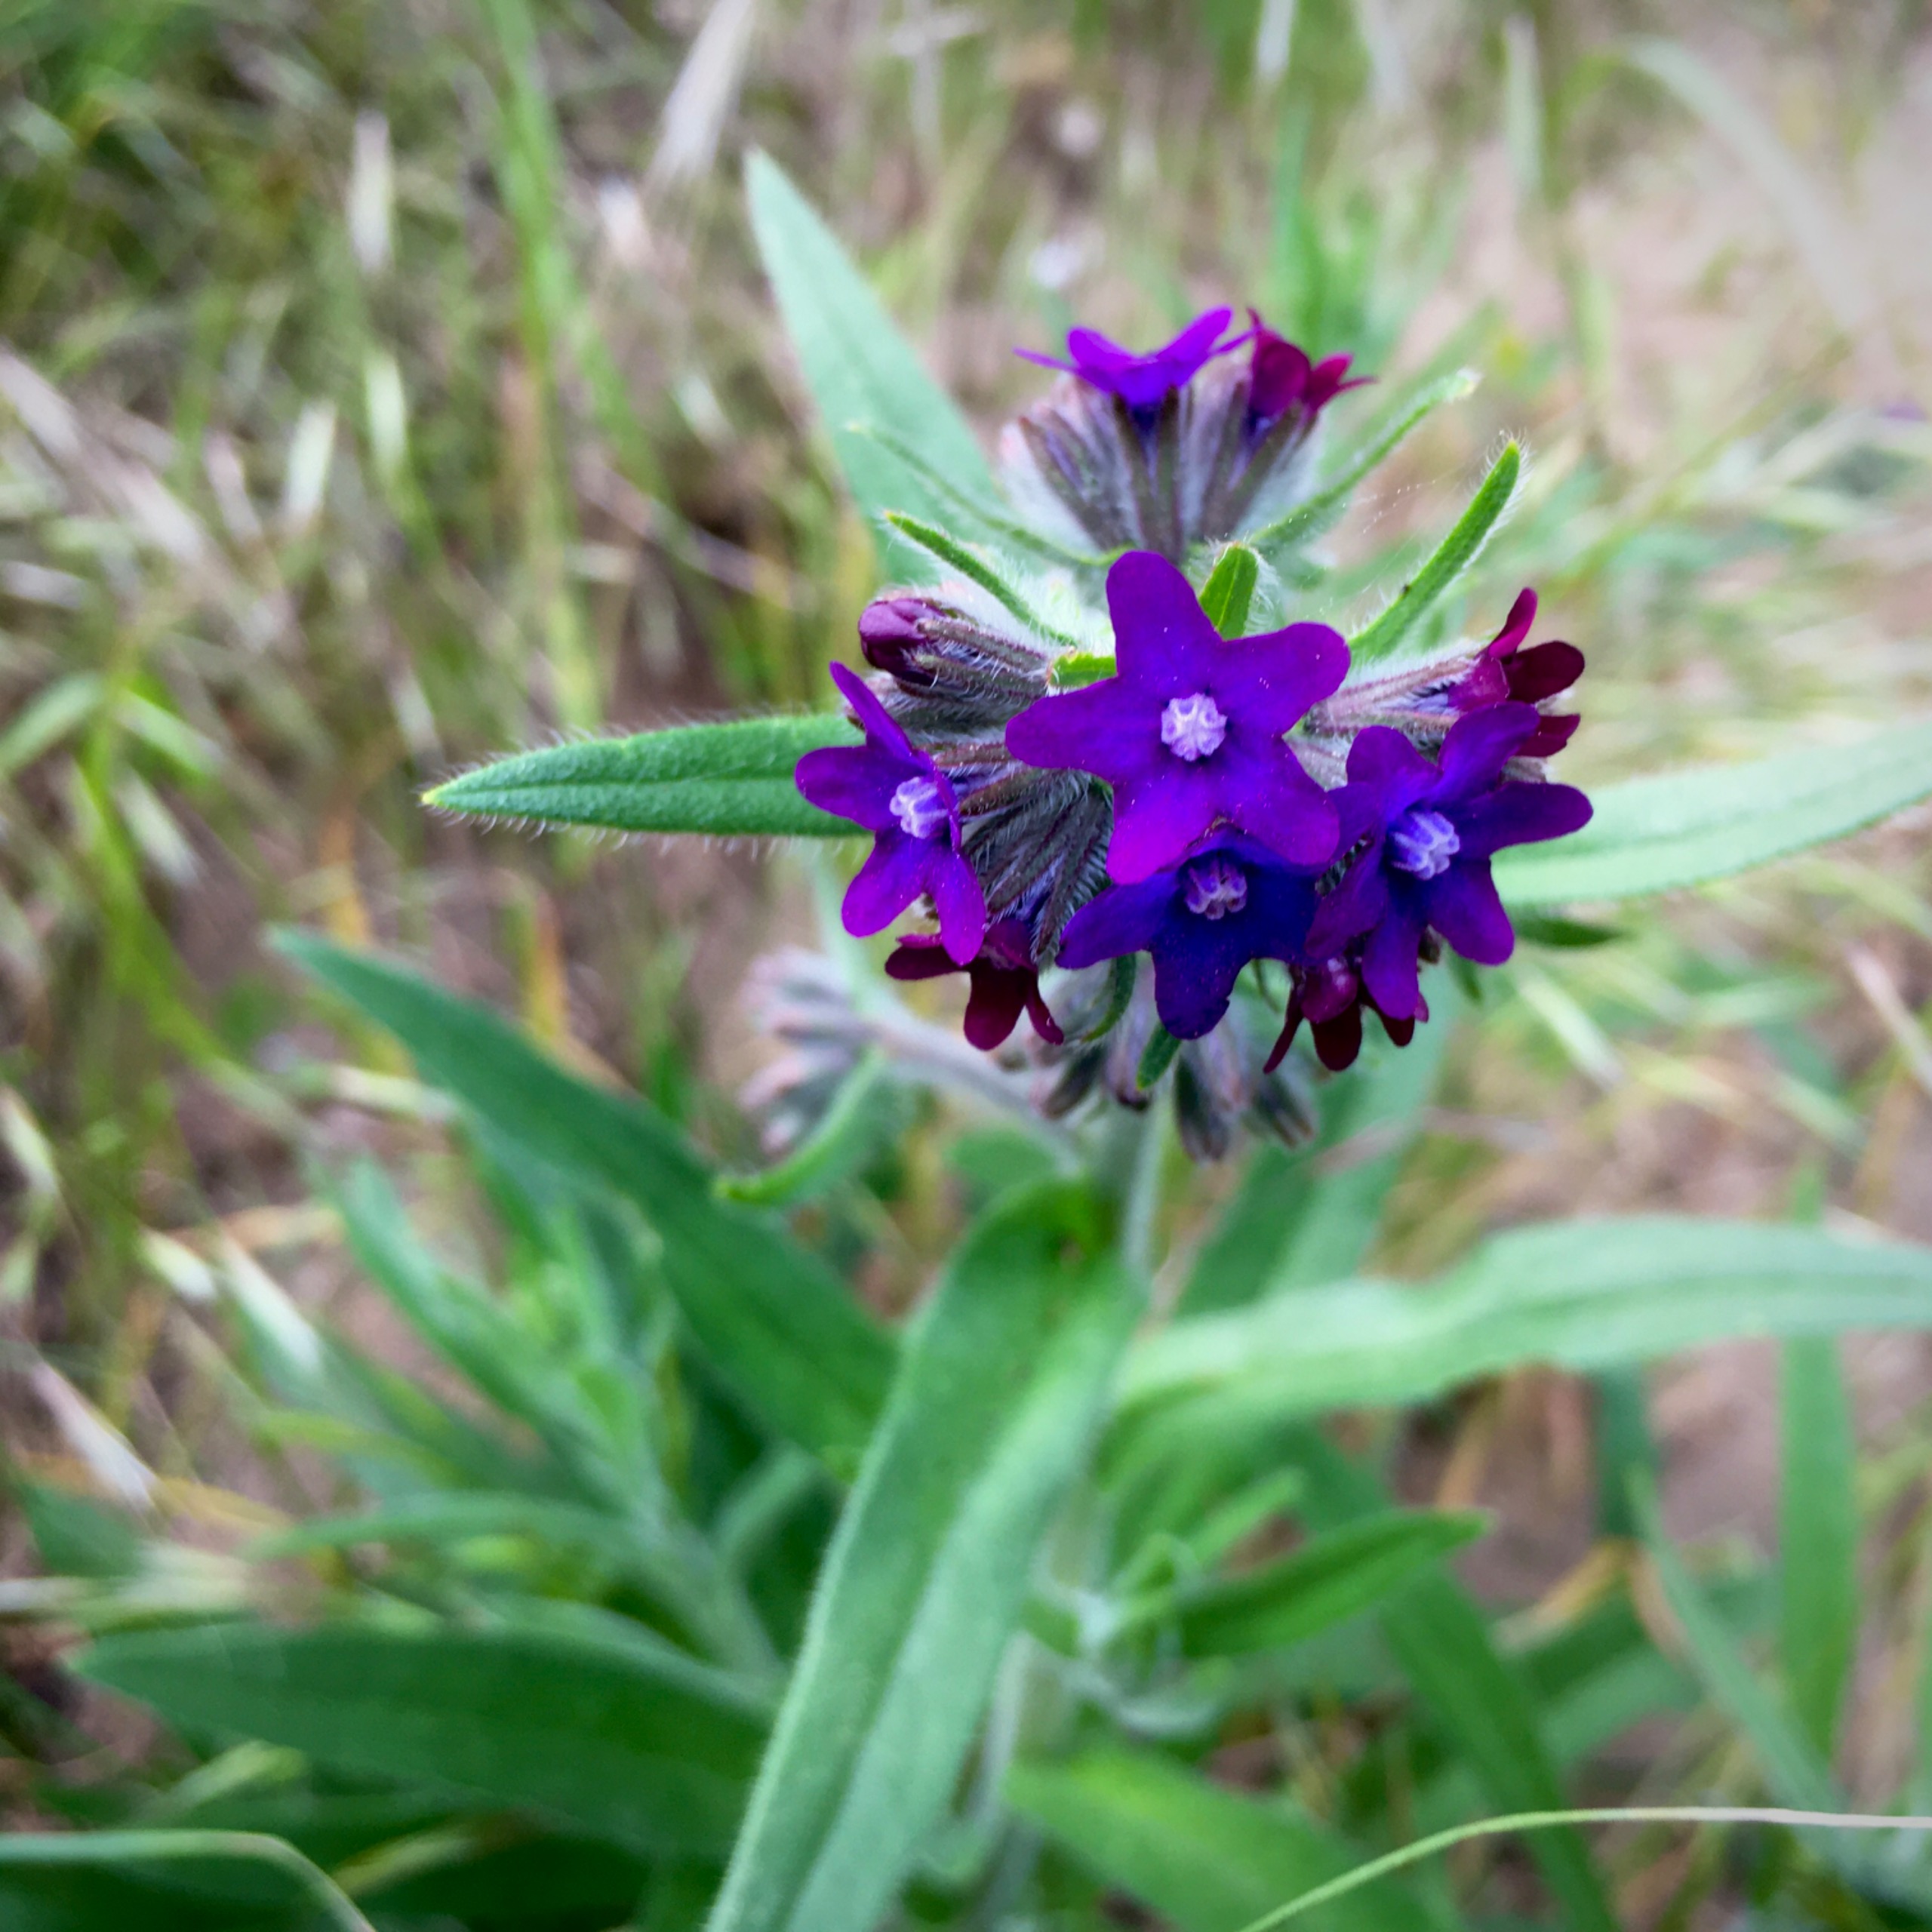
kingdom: Plantae
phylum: Tracheophyta
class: Magnoliopsida
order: Boraginales
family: Boraginaceae
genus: Anchusa
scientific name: Anchusa officinalis
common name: Læge-oksetunge
